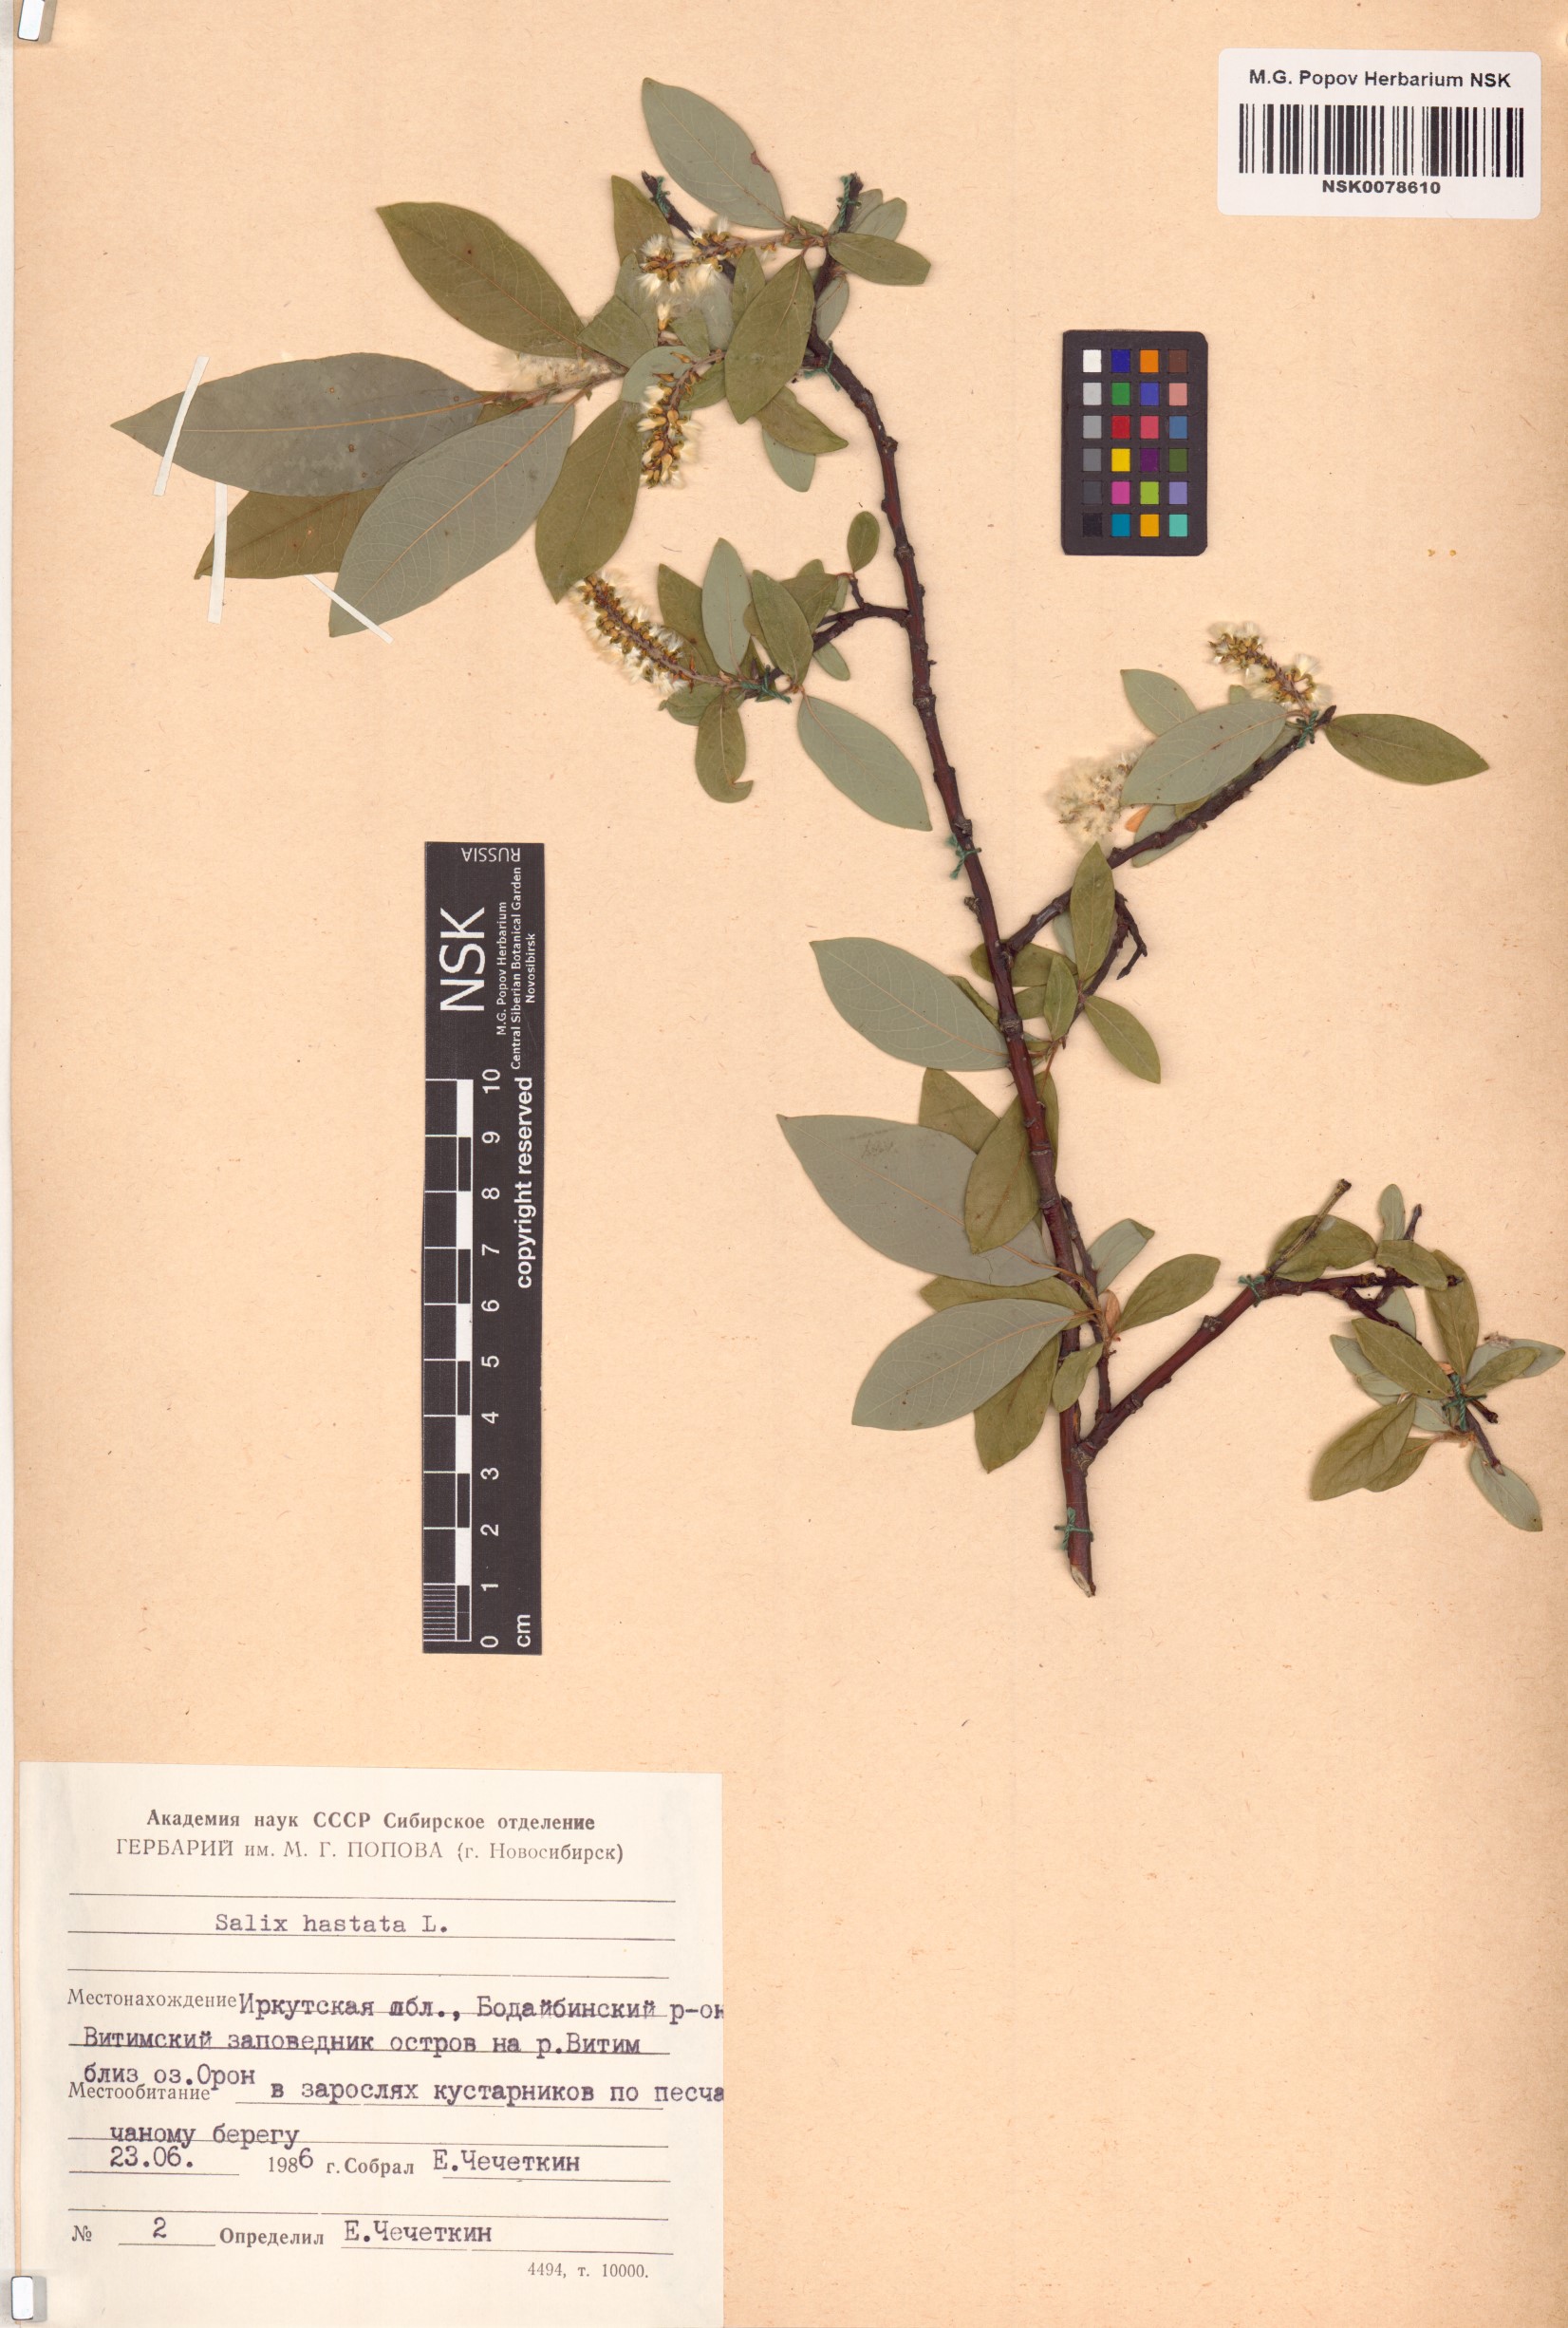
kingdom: Plantae
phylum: Tracheophyta
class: Magnoliopsida
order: Malpighiales
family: Salicaceae
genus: Salix
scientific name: Salix hastata
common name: Halberd willow
